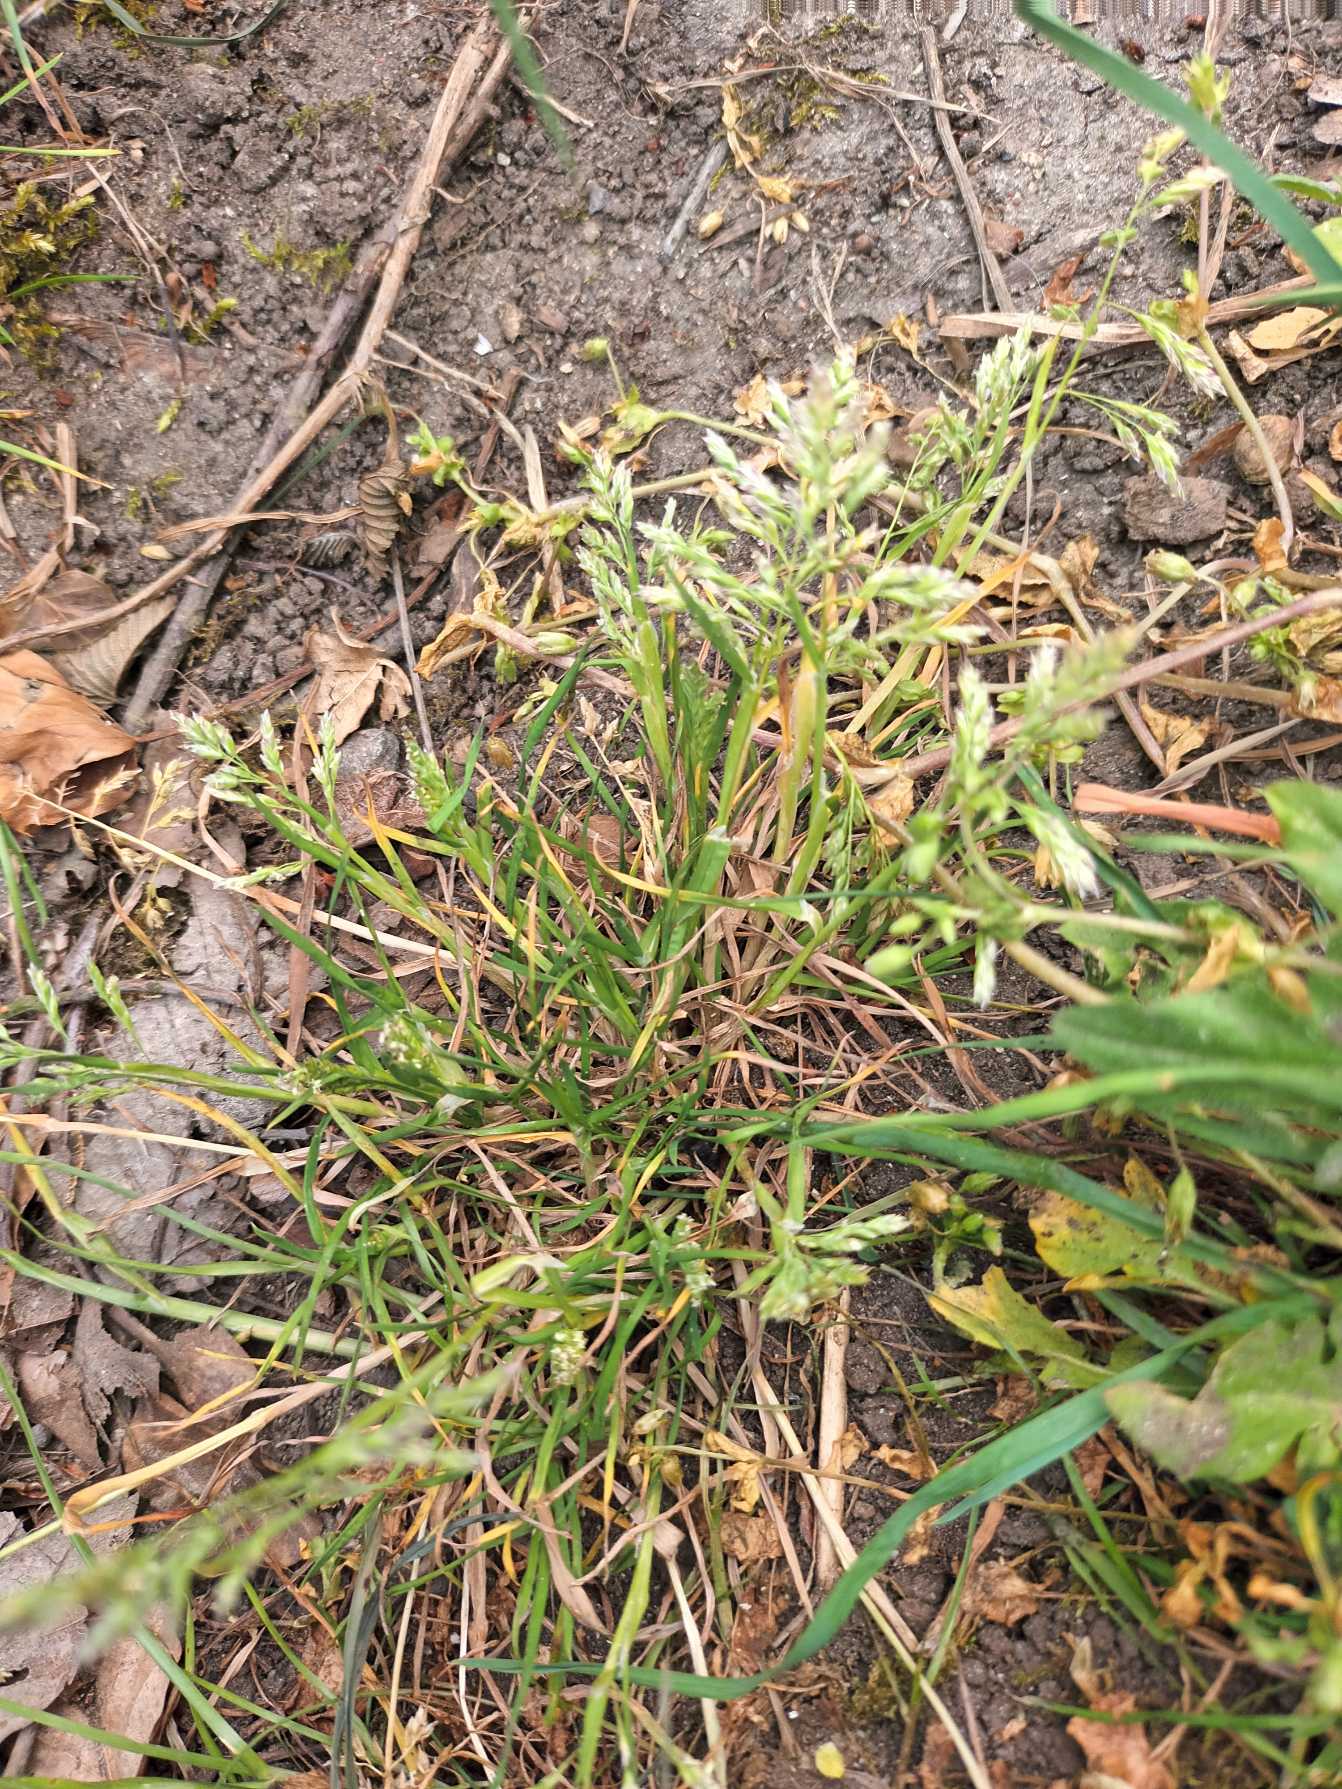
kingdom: Plantae
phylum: Tracheophyta
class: Liliopsida
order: Poales
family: Poaceae
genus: Poa
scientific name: Poa annua
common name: Enårig rapgræs
